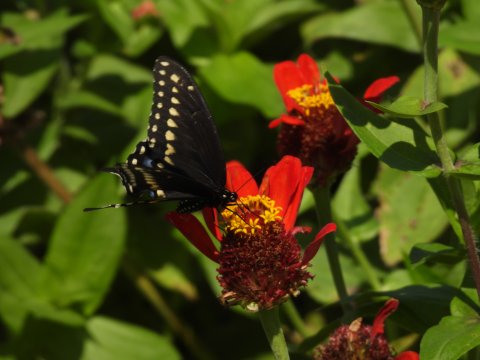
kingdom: Animalia
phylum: Arthropoda
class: Insecta
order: Lepidoptera
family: Papilionidae
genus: Papilio
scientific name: Papilio polyxenes
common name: Black Swallowtail
